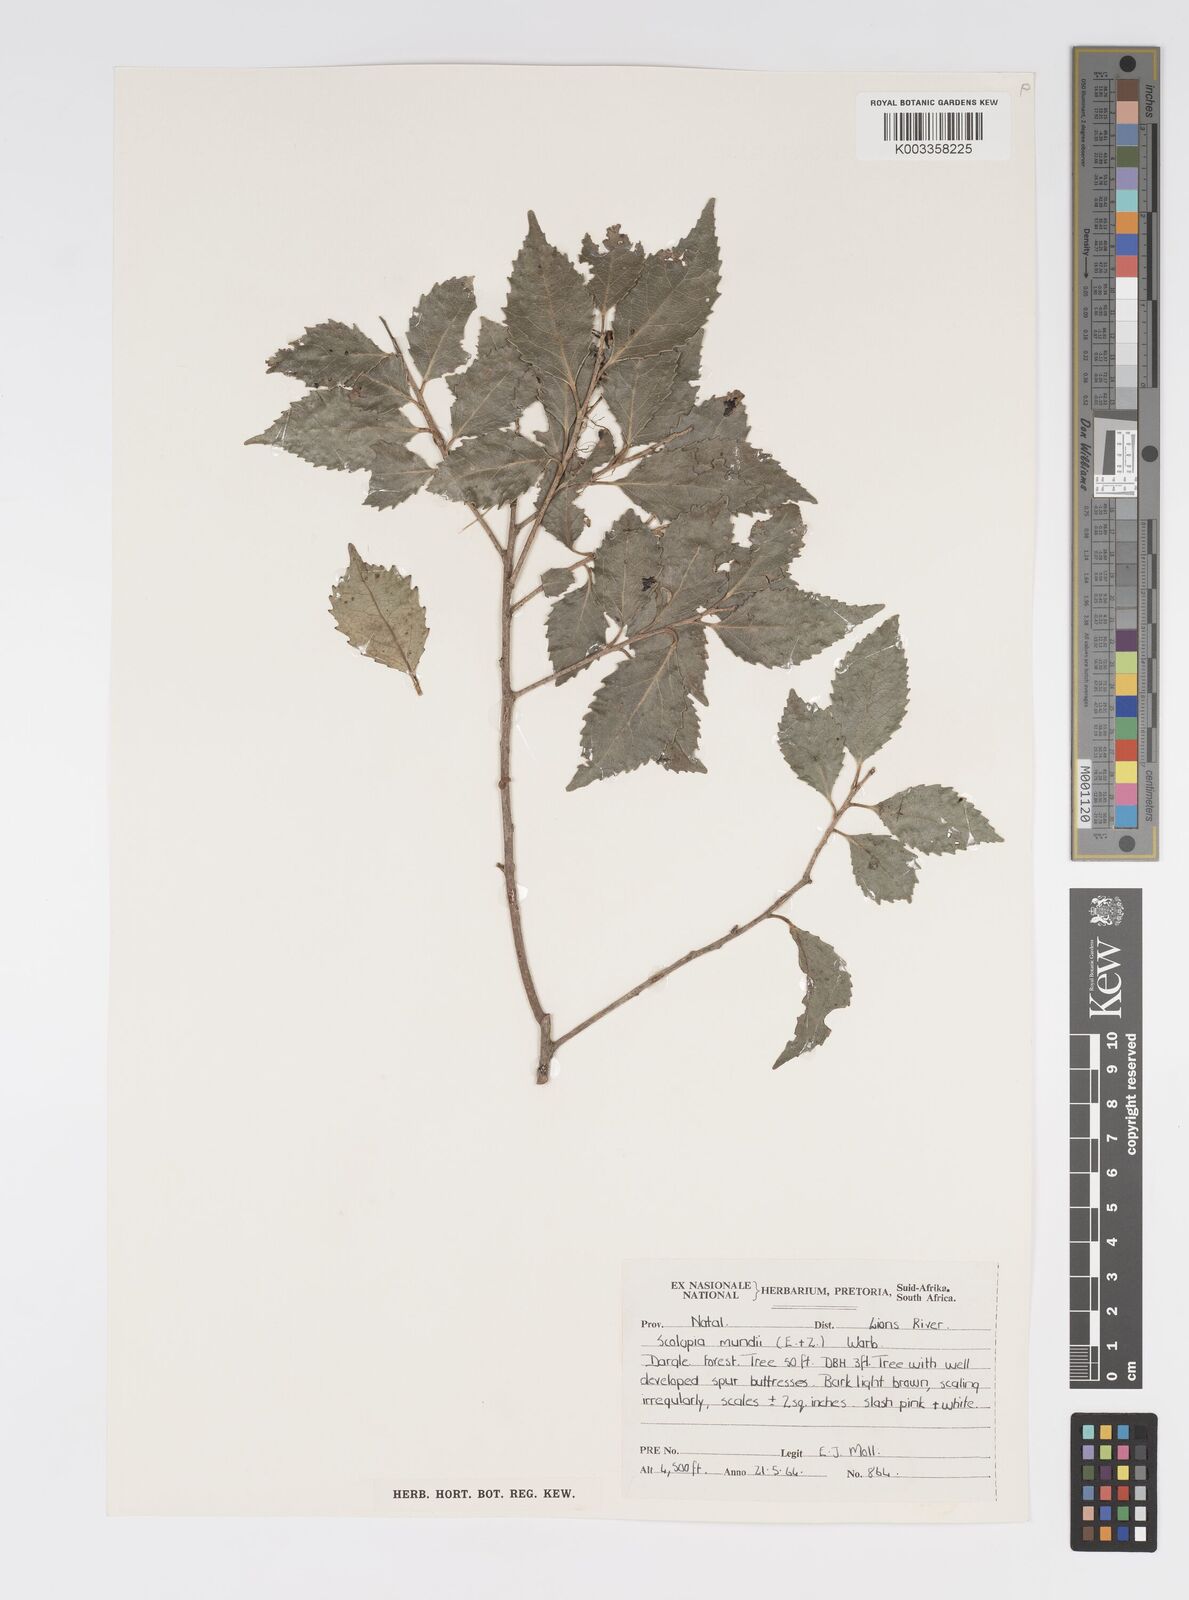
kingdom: Plantae
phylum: Tracheophyta
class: Magnoliopsida
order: Malpighiales
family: Salicaceae
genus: Scolopia
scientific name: Scolopia mundii
